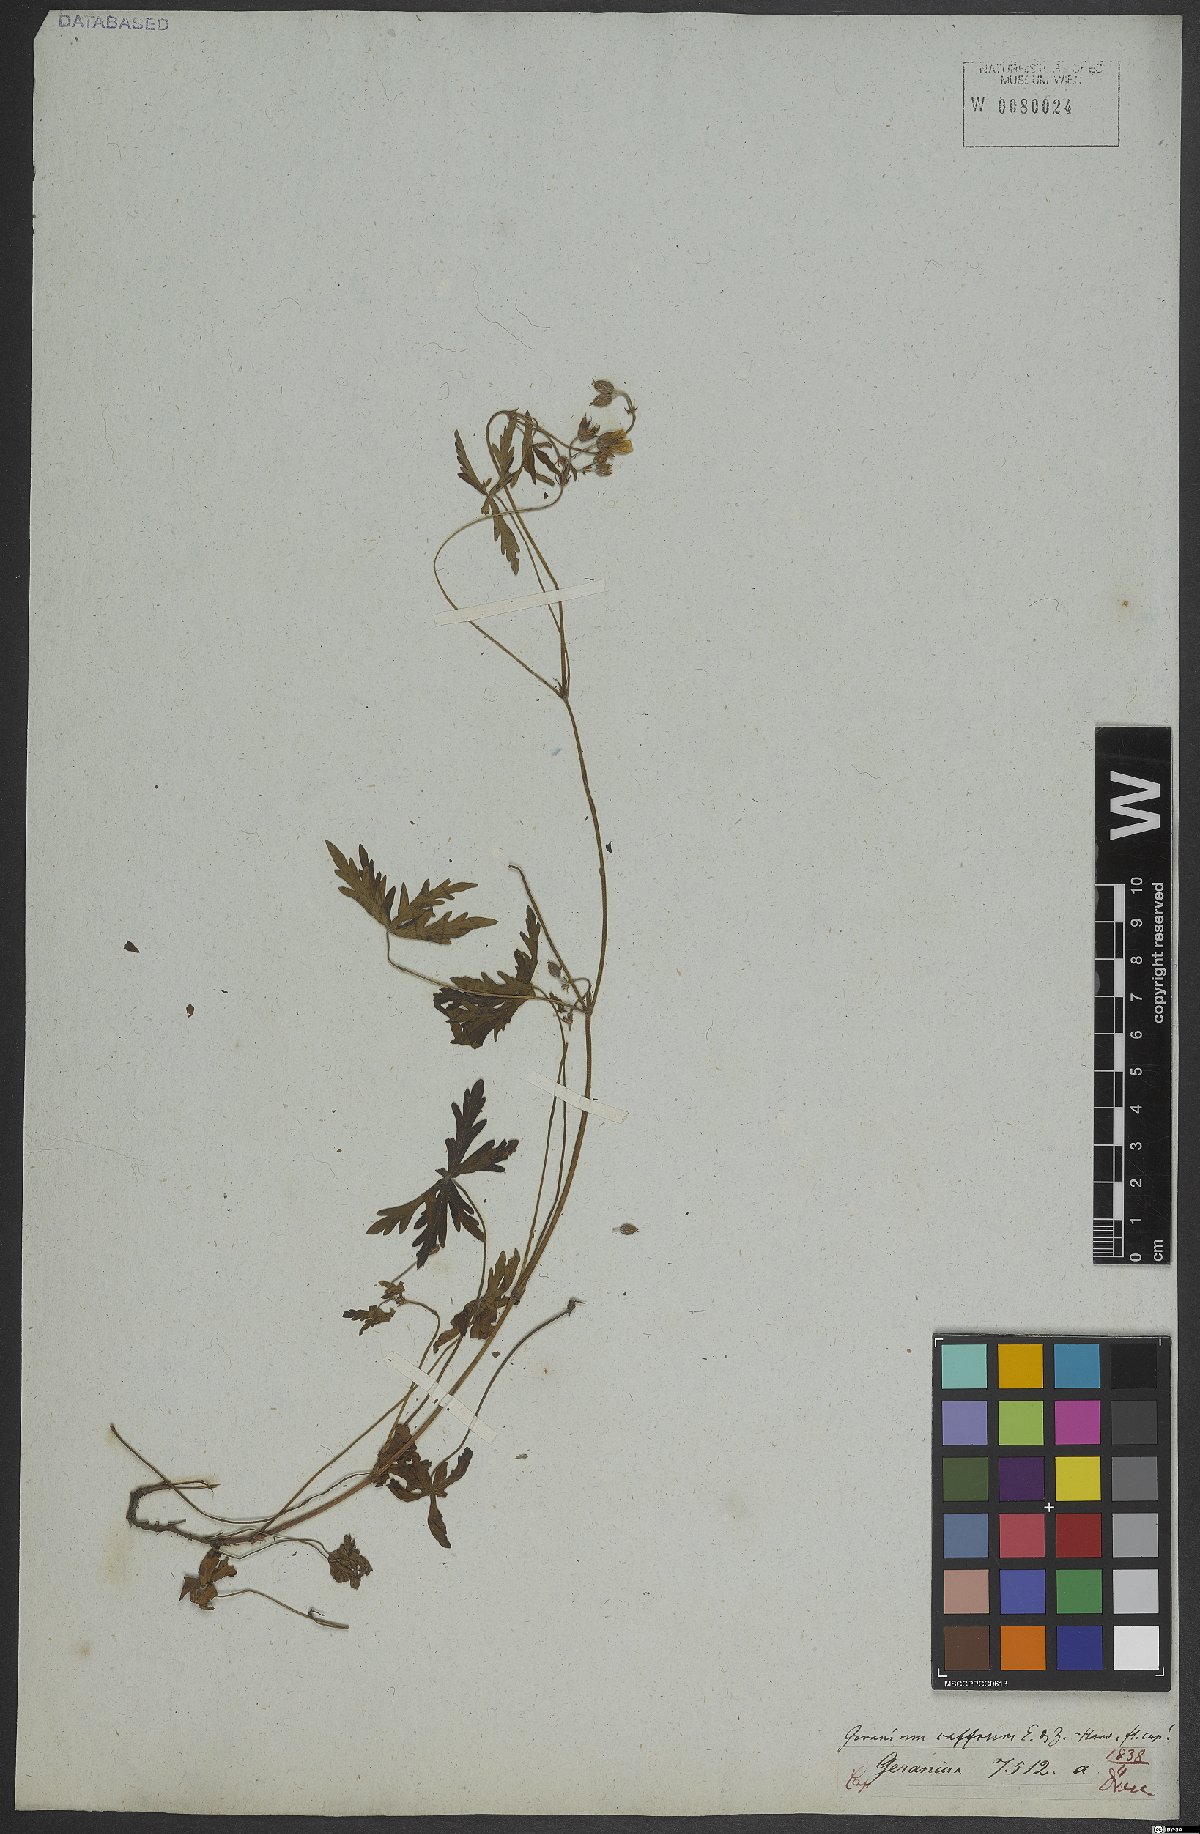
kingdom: Plantae
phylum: Tracheophyta
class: Magnoliopsida
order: Geraniales
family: Geraniaceae
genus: Geranium
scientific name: Geranium caffrum
